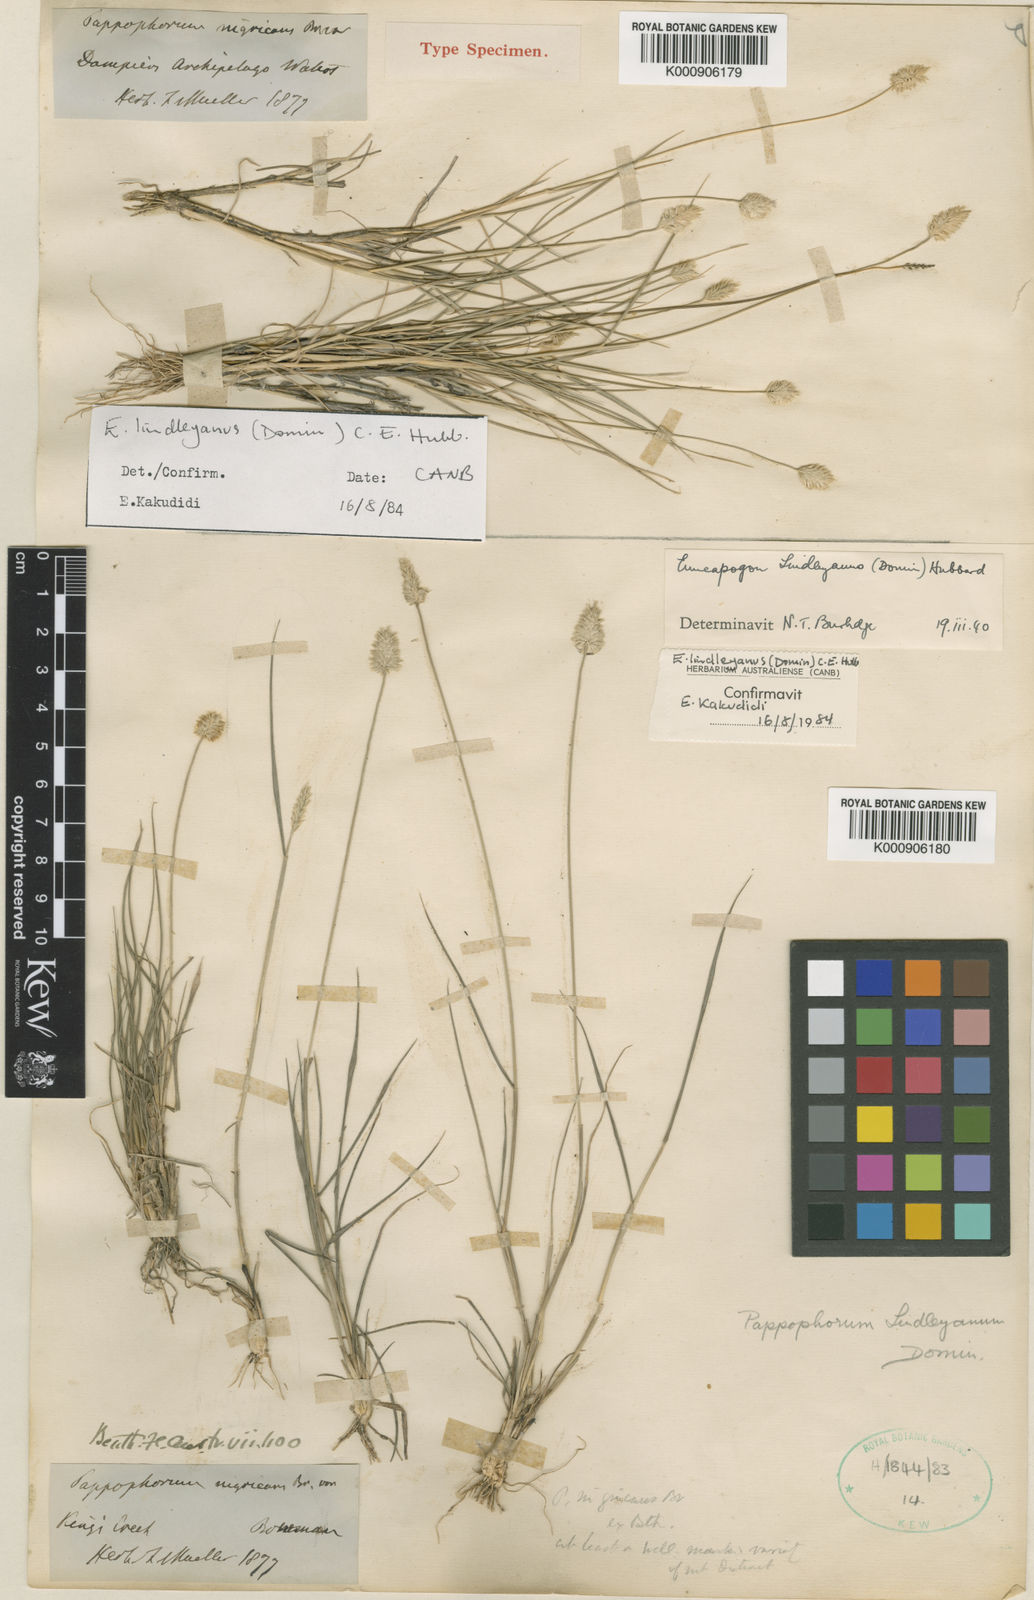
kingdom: Plantae
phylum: Tracheophyta
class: Liliopsida
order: Poales
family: Poaceae
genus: Enneapogon
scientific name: Enneapogon lindleyanus
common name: Conetop nineawn
